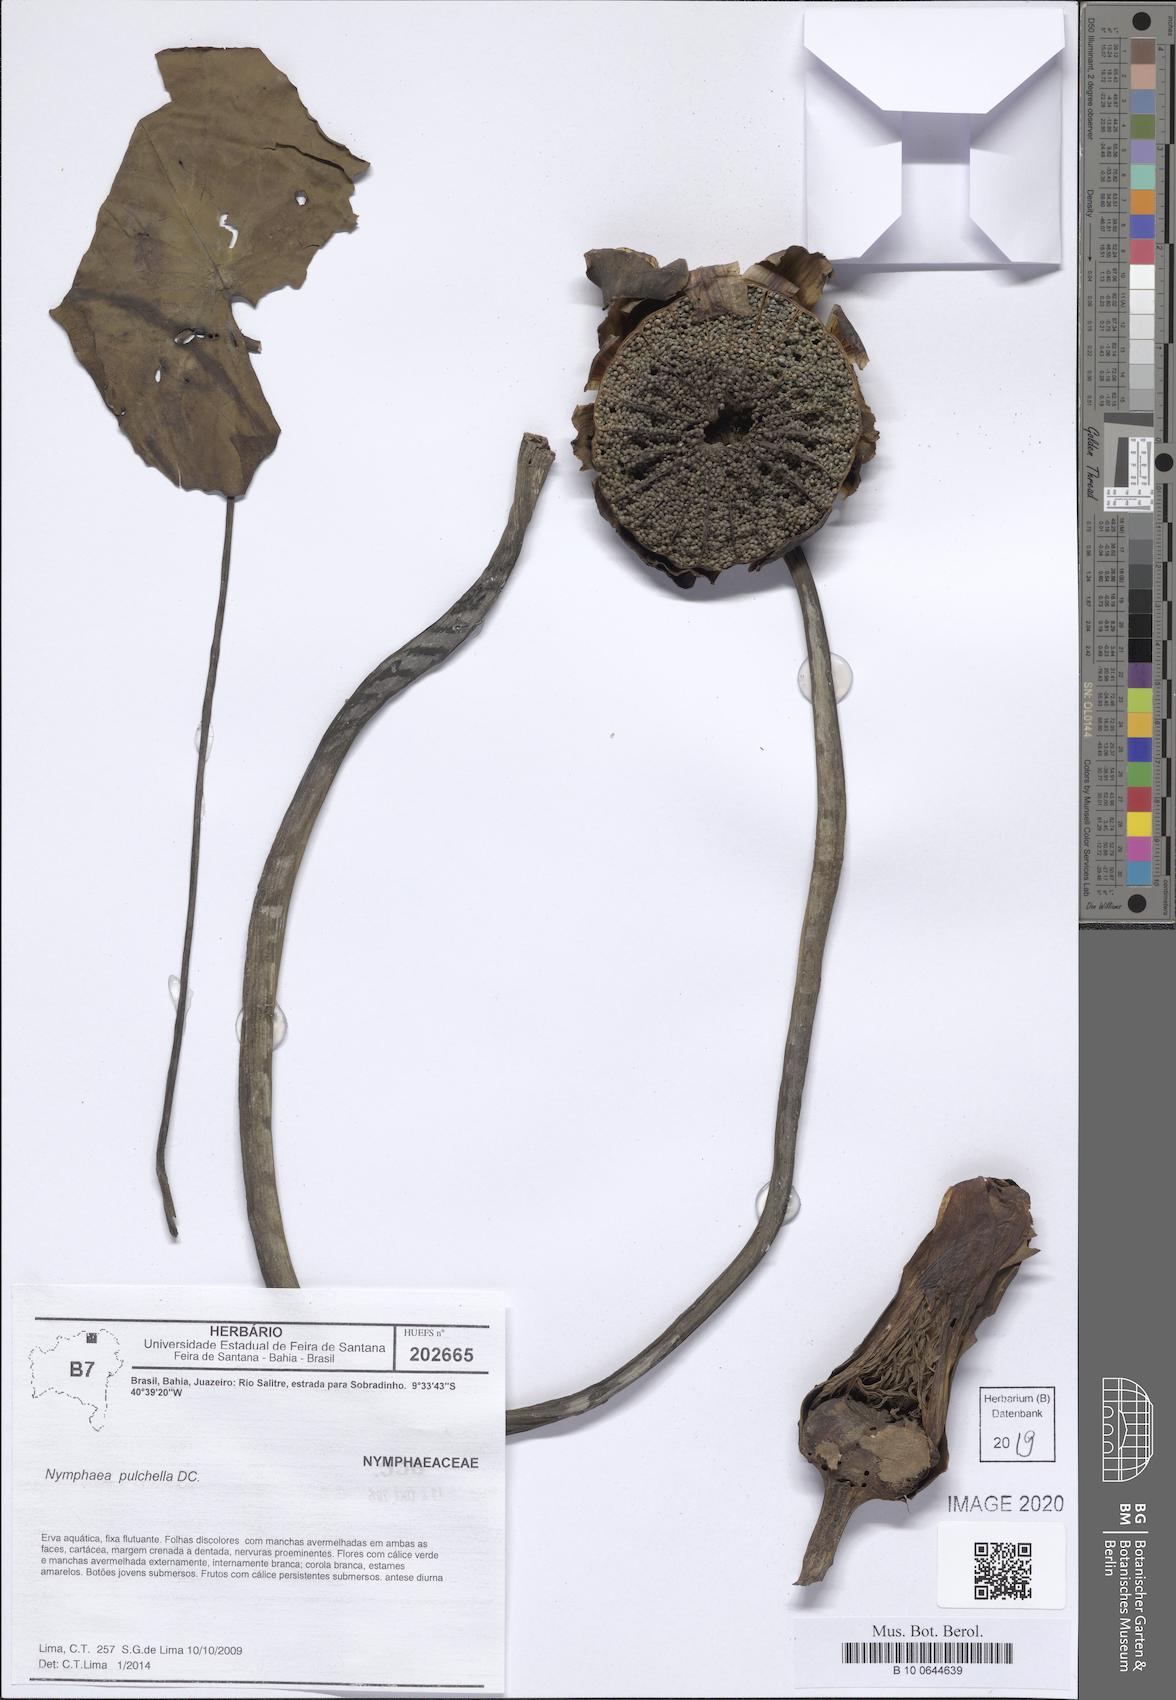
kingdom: Plantae
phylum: Tracheophyta
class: Magnoliopsida
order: Nymphaeales
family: Nymphaeaceae
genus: Nymphaea
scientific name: Nymphaea pulchella
